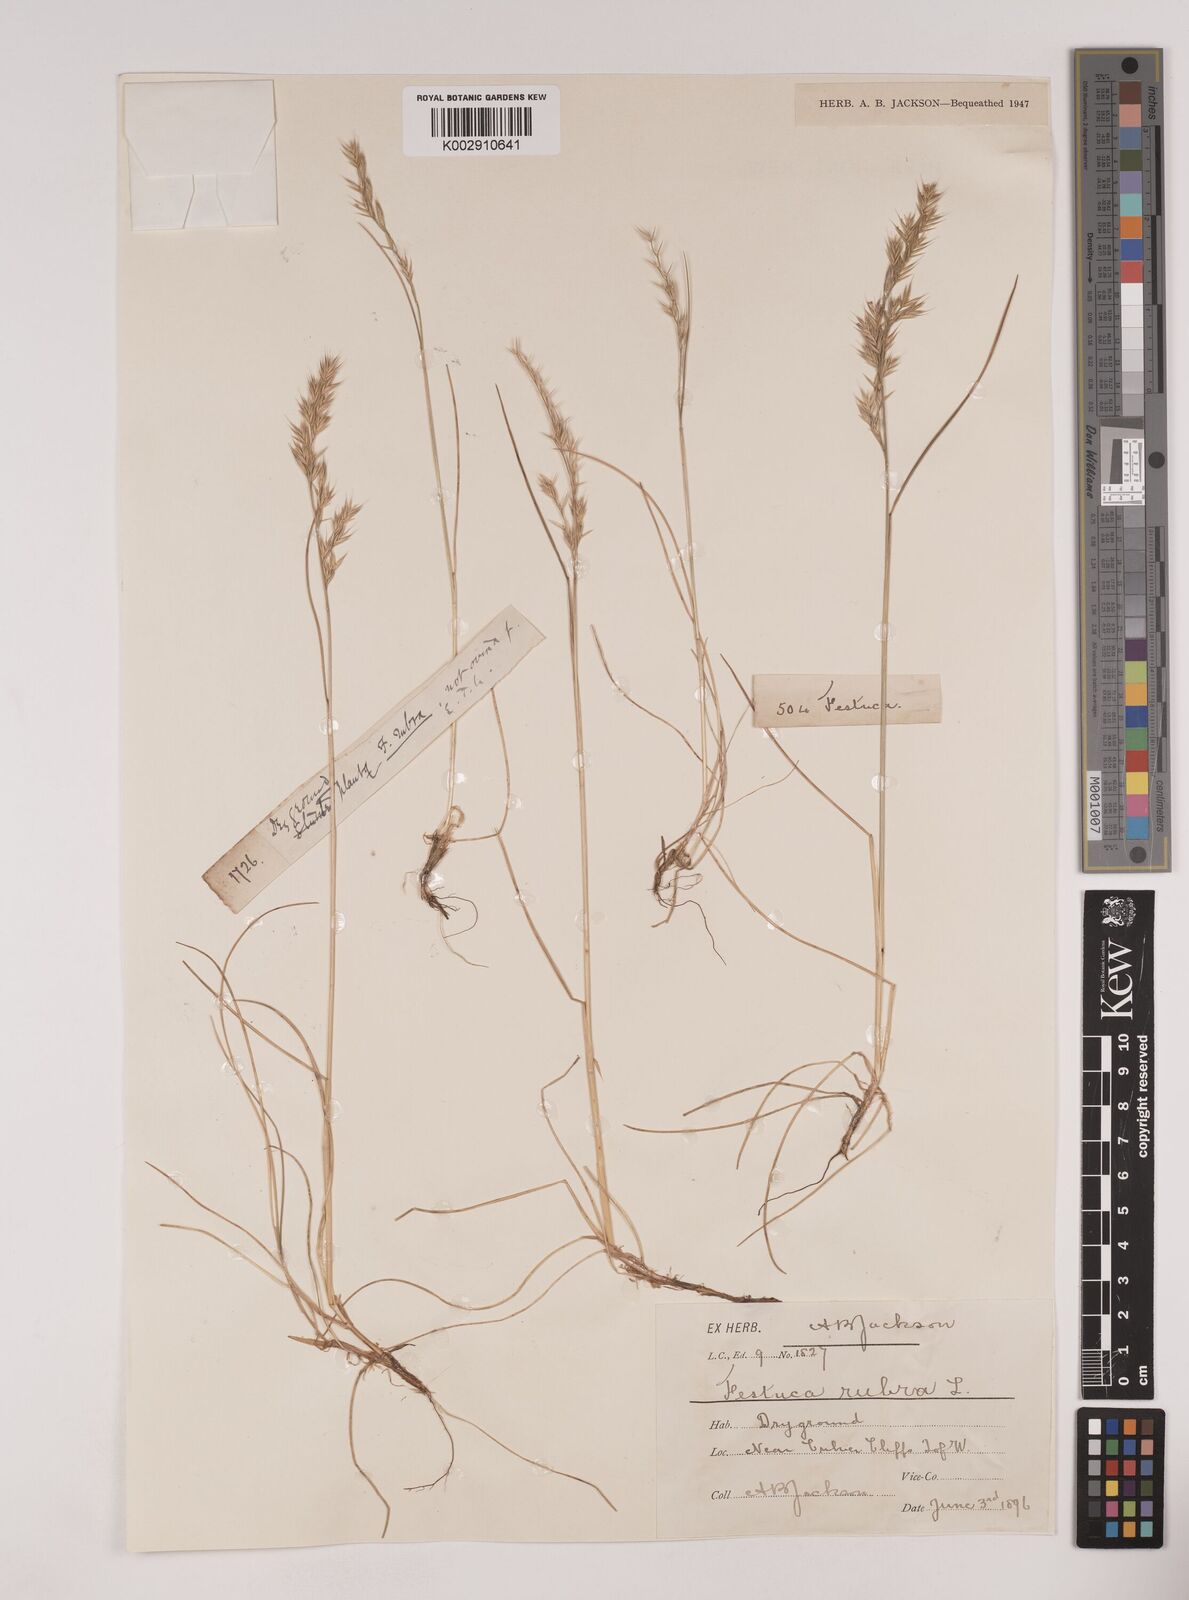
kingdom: Plantae
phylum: Tracheophyta
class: Liliopsida
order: Poales
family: Poaceae
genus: Festuca
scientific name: Festuca rubra
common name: Red fescue
